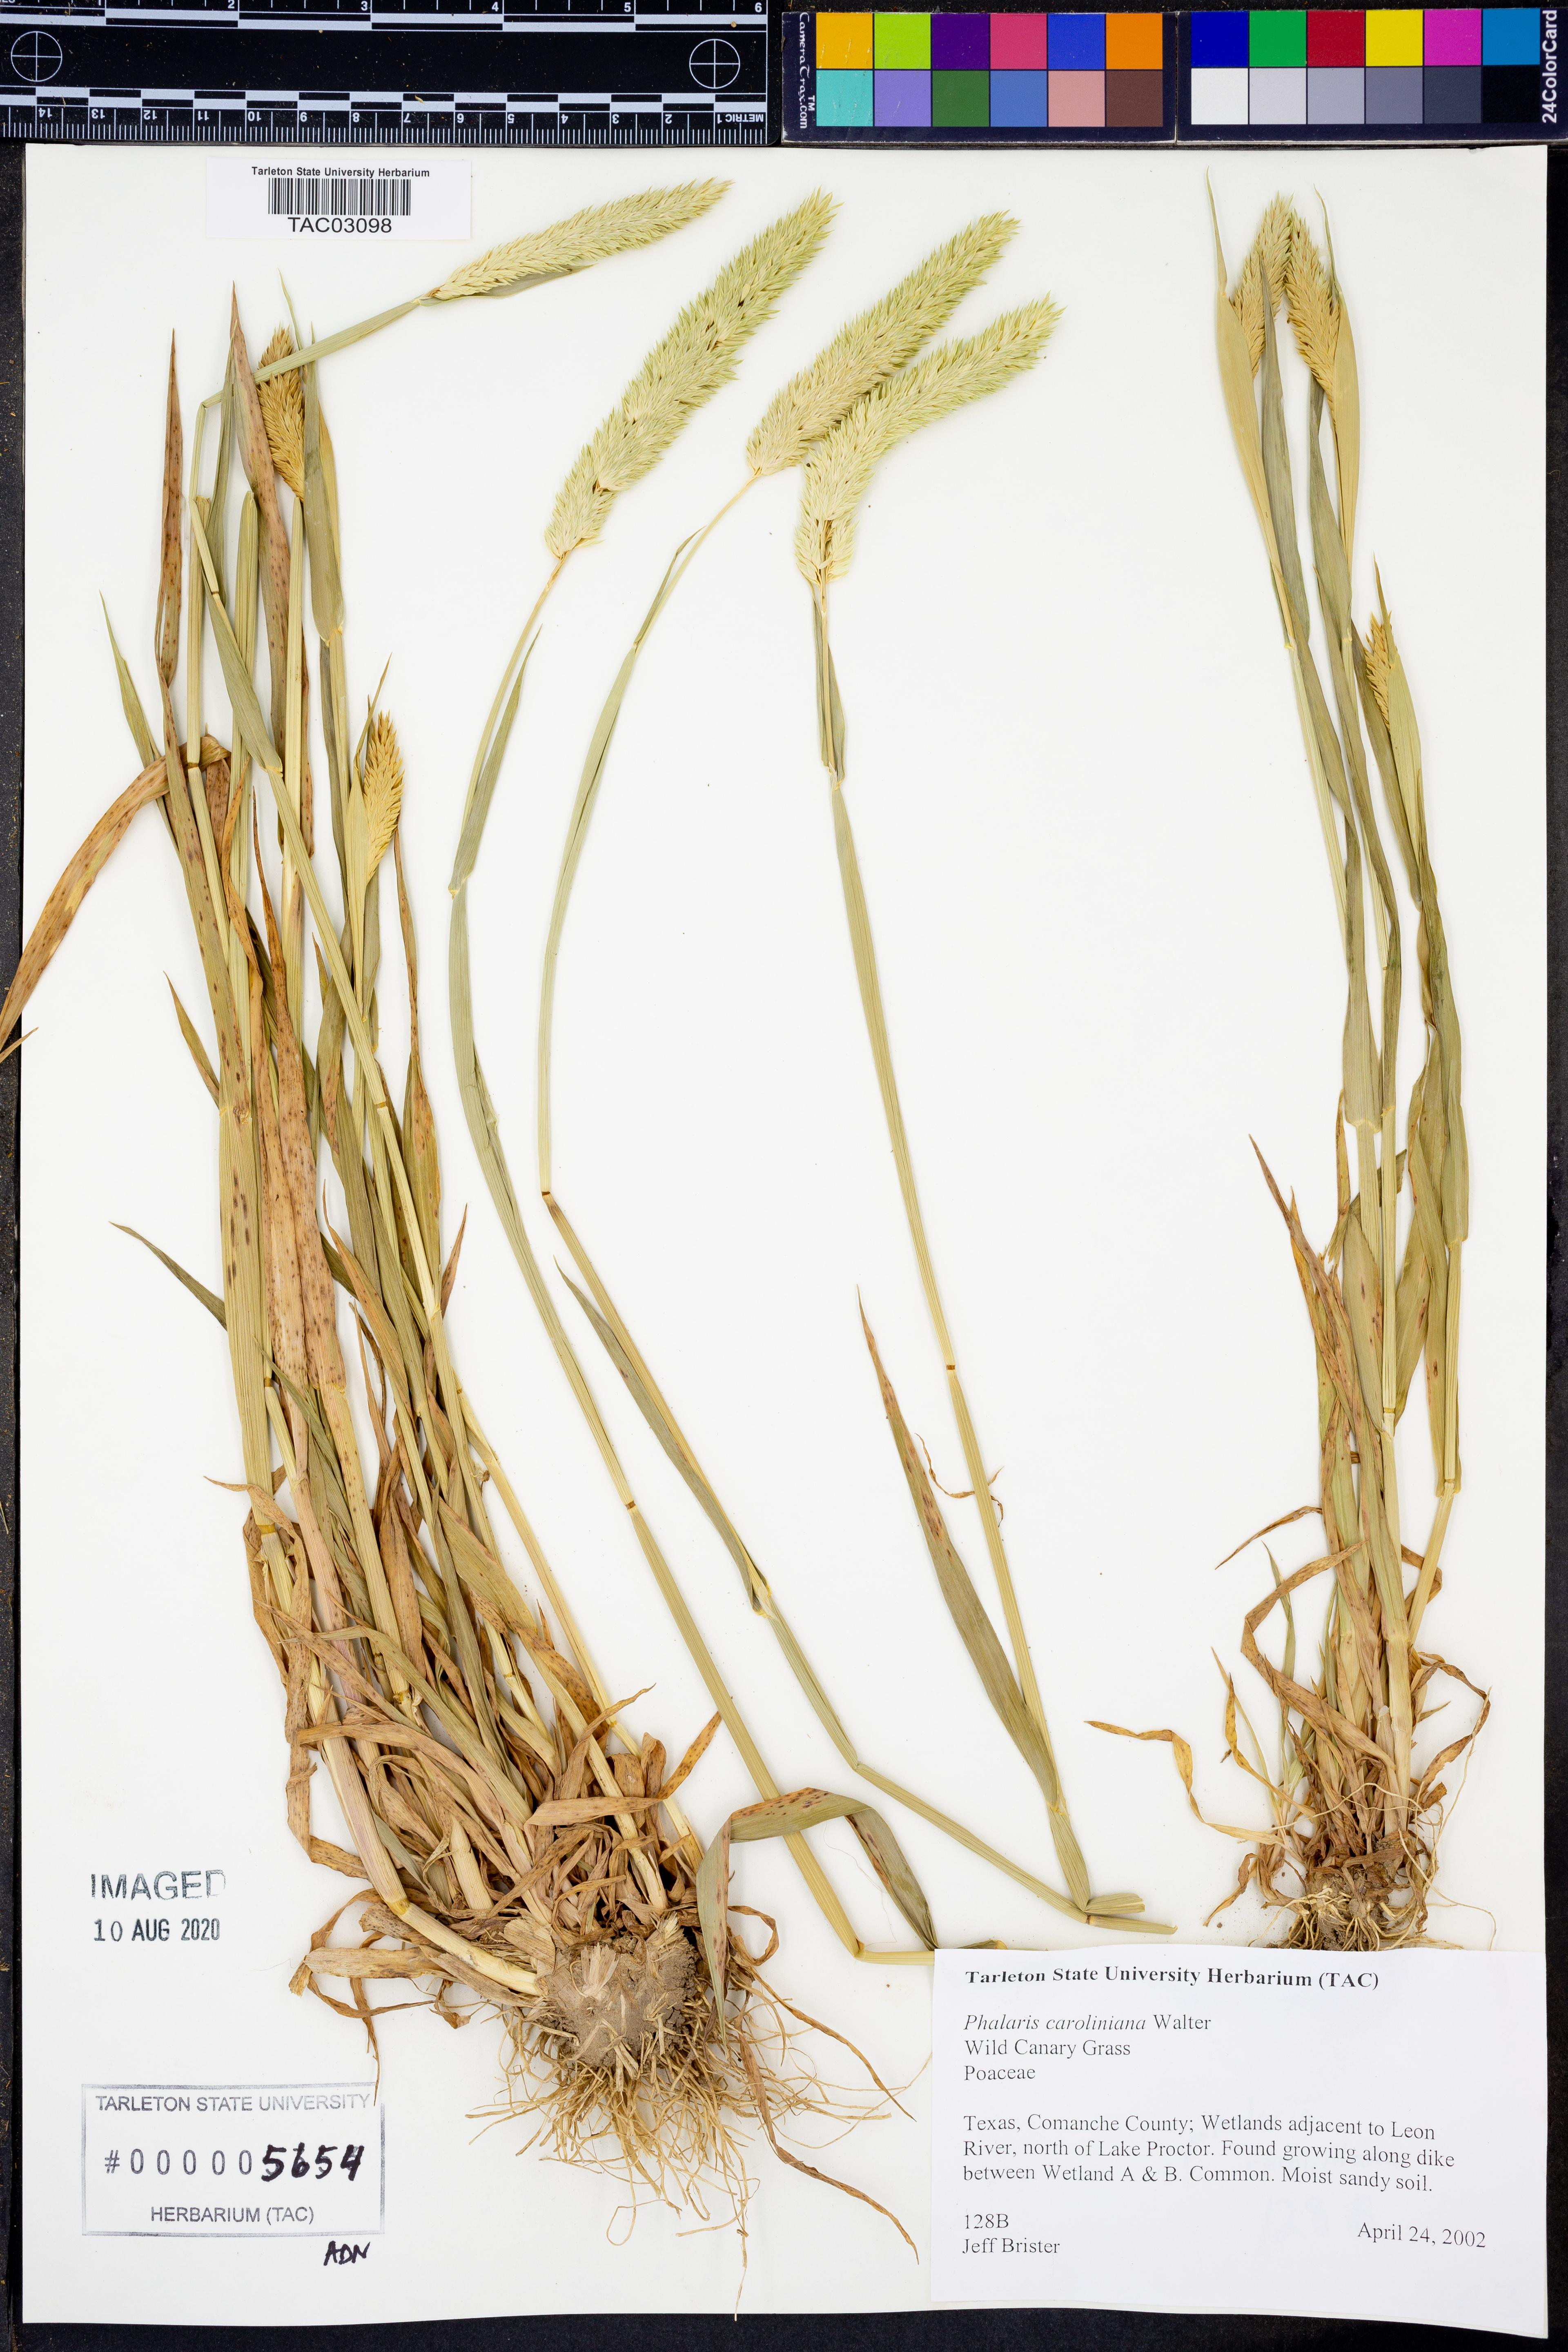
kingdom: Plantae
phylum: Tracheophyta
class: Liliopsida
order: Poales
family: Poaceae
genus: Phalaris
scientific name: Phalaris caroliniana
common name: May grass
